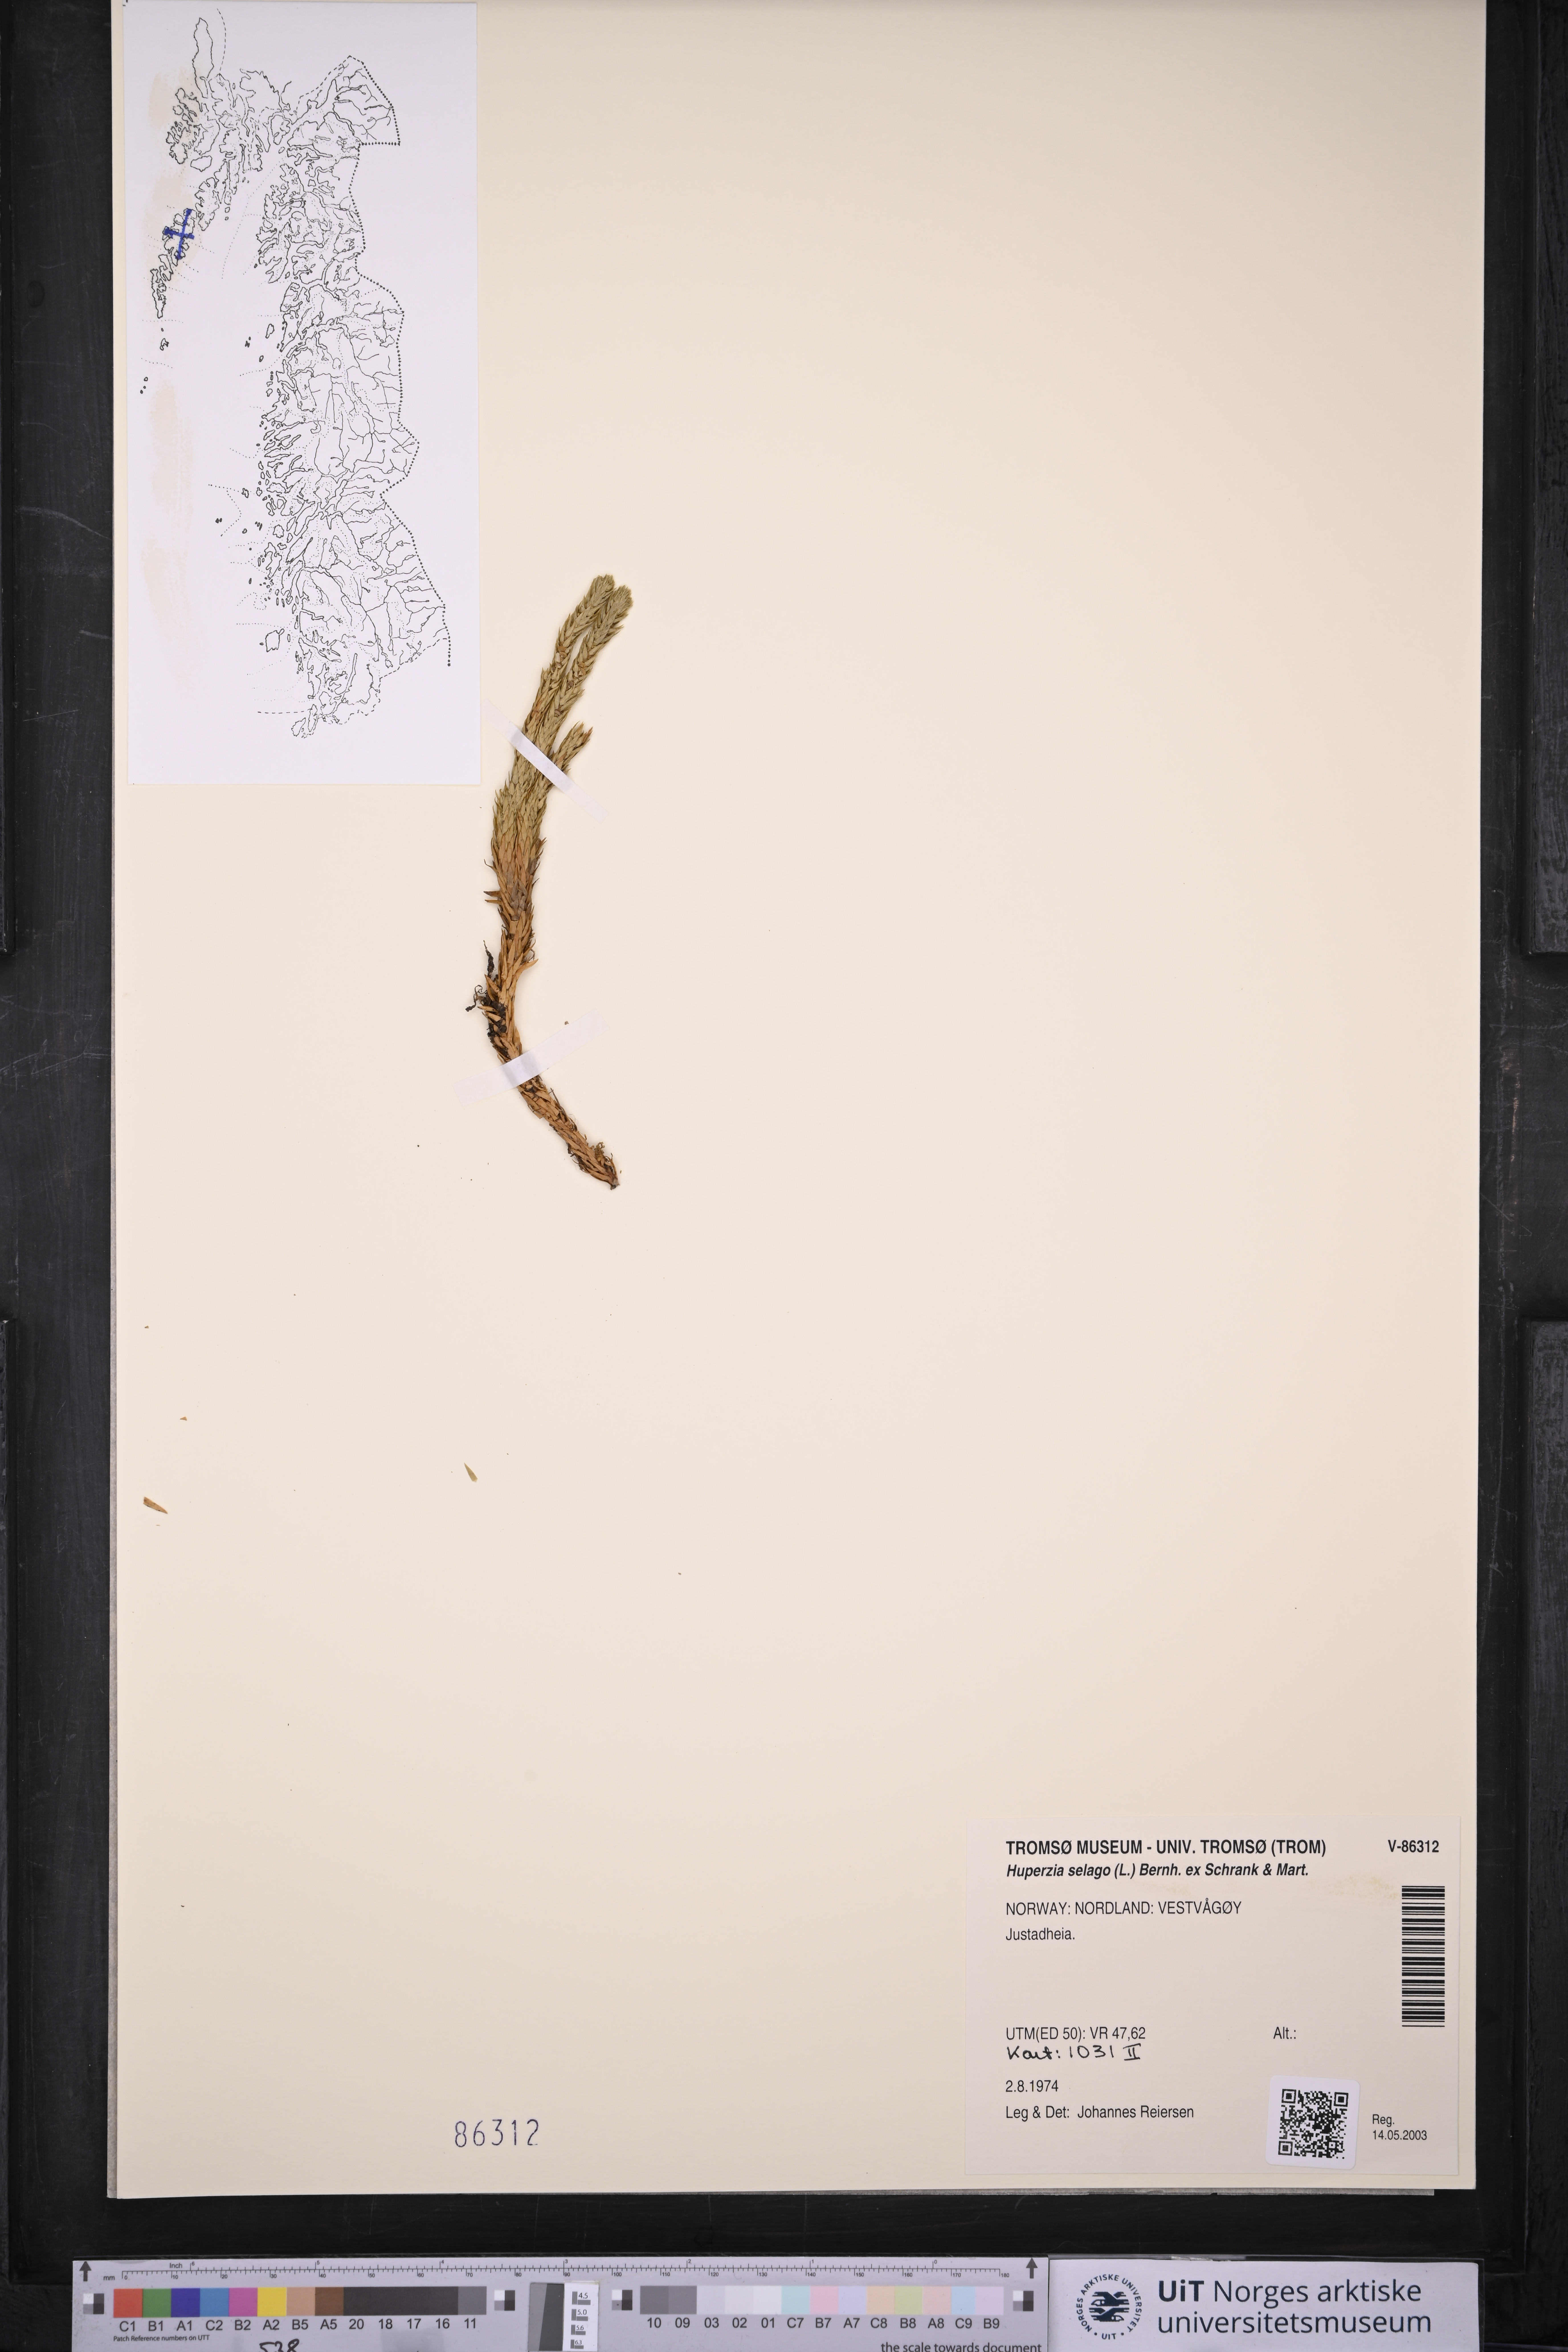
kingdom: Plantae
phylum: Tracheophyta
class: Lycopodiopsida
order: Lycopodiales
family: Lycopodiaceae
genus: Huperzia
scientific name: Huperzia selago
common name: Northern firmoss
